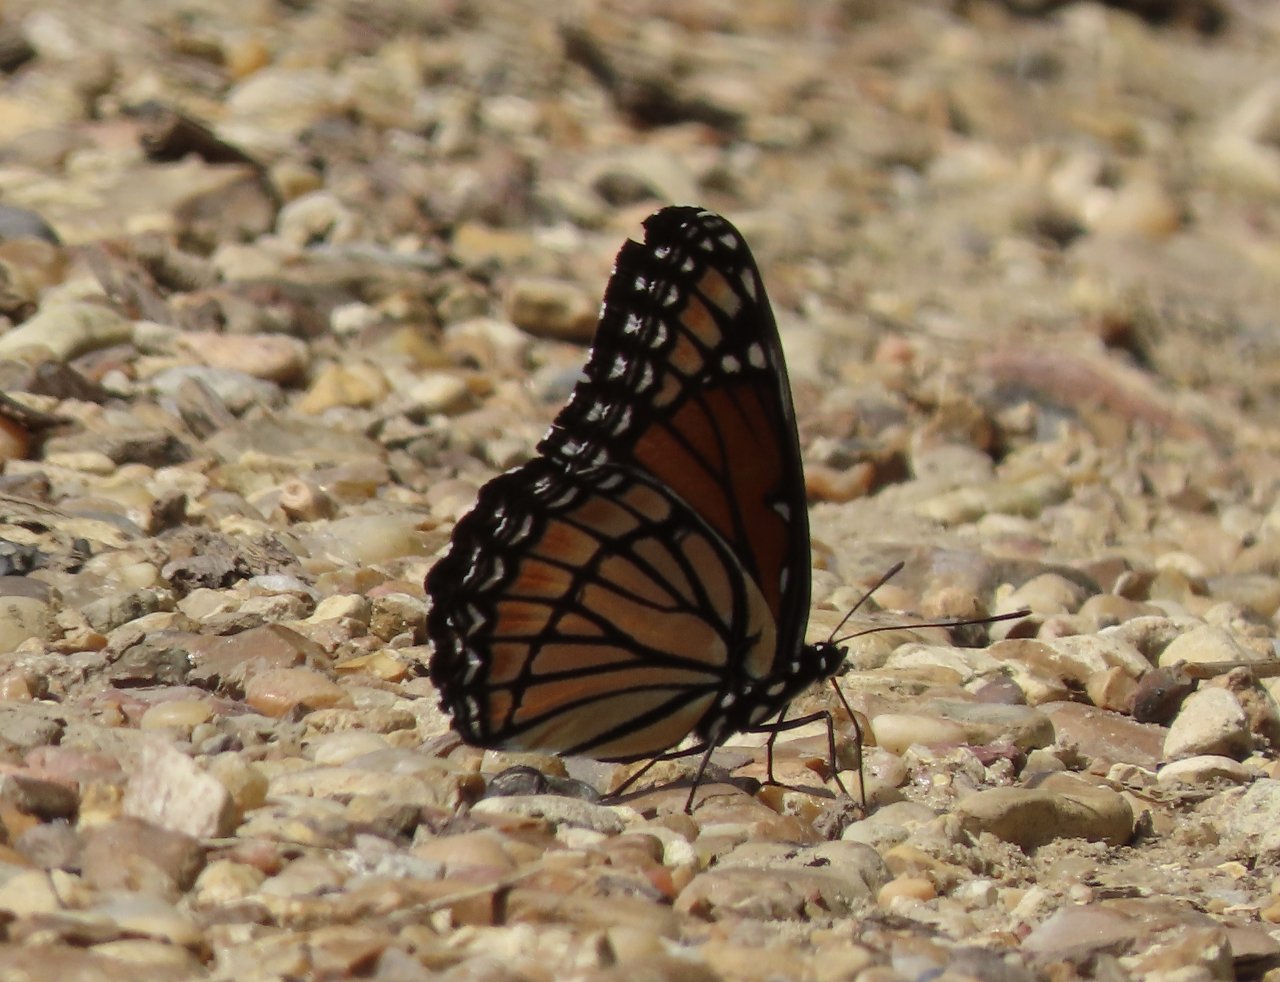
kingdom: Animalia
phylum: Arthropoda
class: Insecta
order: Lepidoptera
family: Nymphalidae
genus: Limenitis
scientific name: Limenitis archippus
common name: Viceroy
